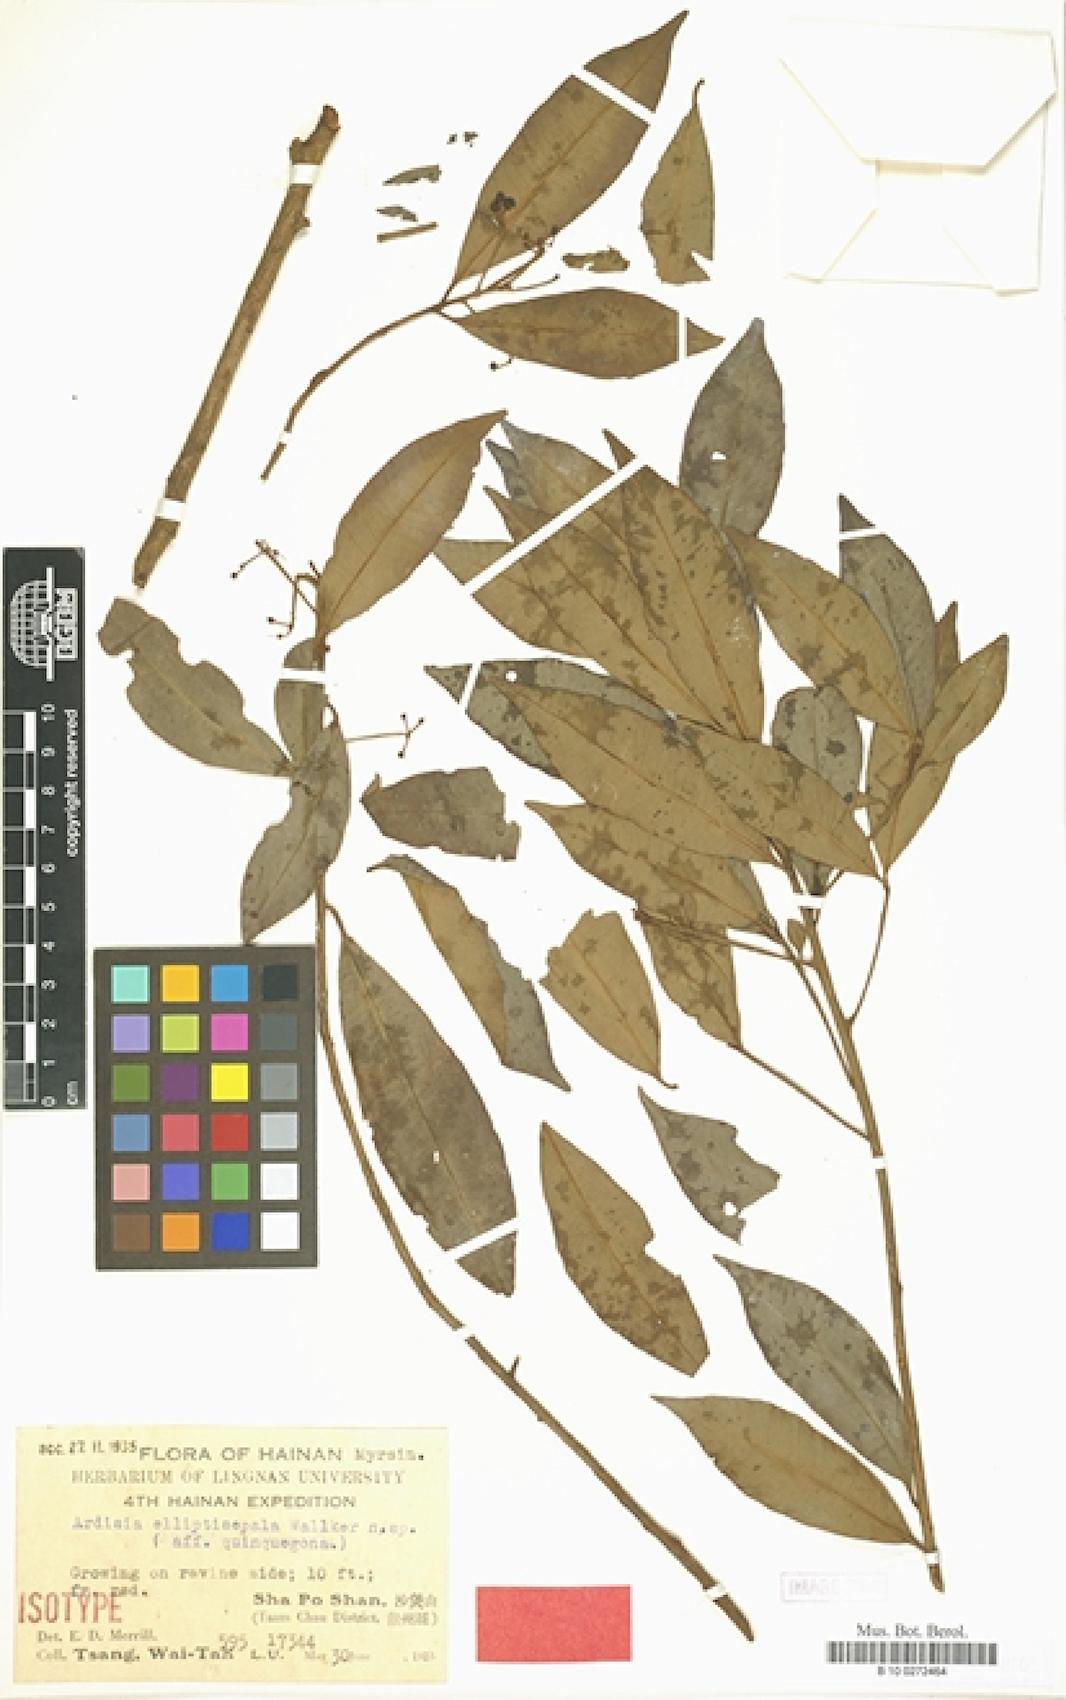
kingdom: Plantae
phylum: Tracheophyta
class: Magnoliopsida
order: Ericales
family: Primulaceae
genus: Ardisia
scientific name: Ardisia quinquegona
